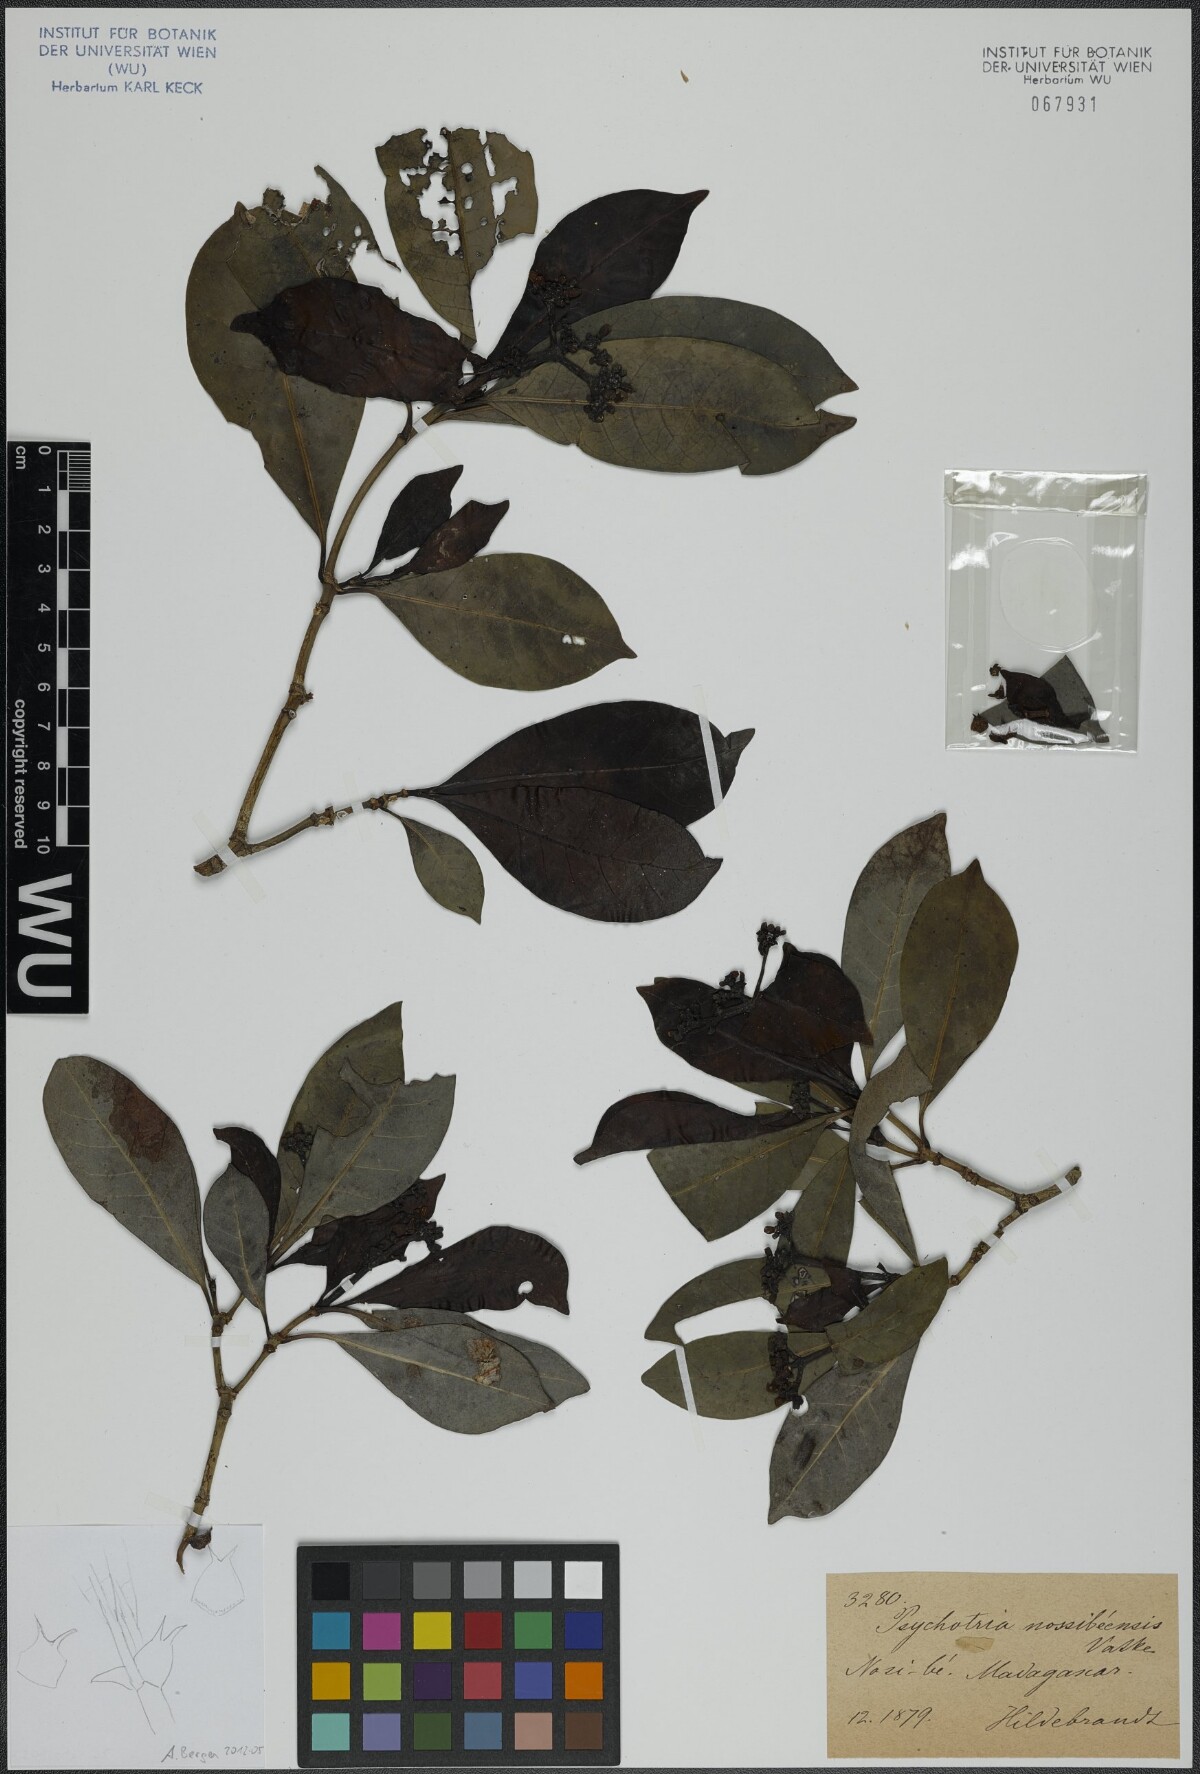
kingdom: Plantae
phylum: Tracheophyta
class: Magnoliopsida
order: Gentianales
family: Rubiaceae
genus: Psychotria
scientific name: Psychotria nossibensis
